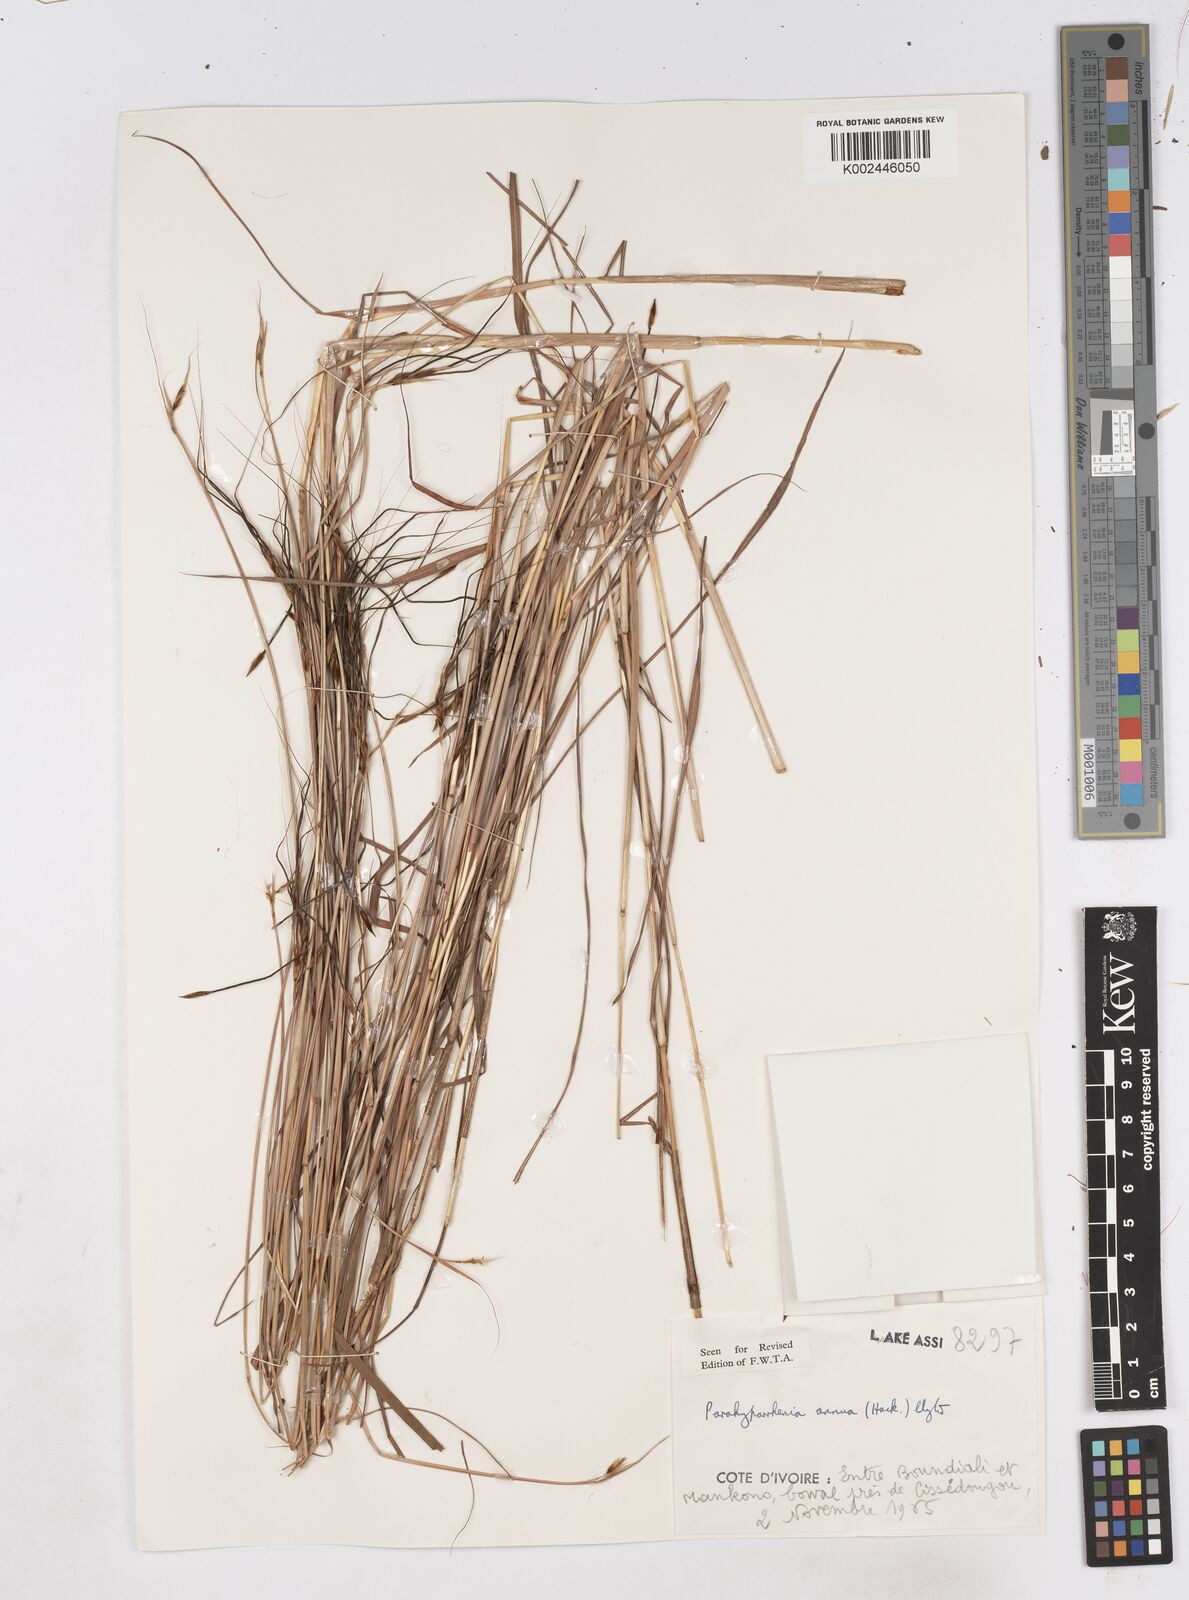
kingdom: Plantae
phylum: Tracheophyta
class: Liliopsida
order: Poales
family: Poaceae
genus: Parahyparrhenia
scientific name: Parahyparrhenia annua
